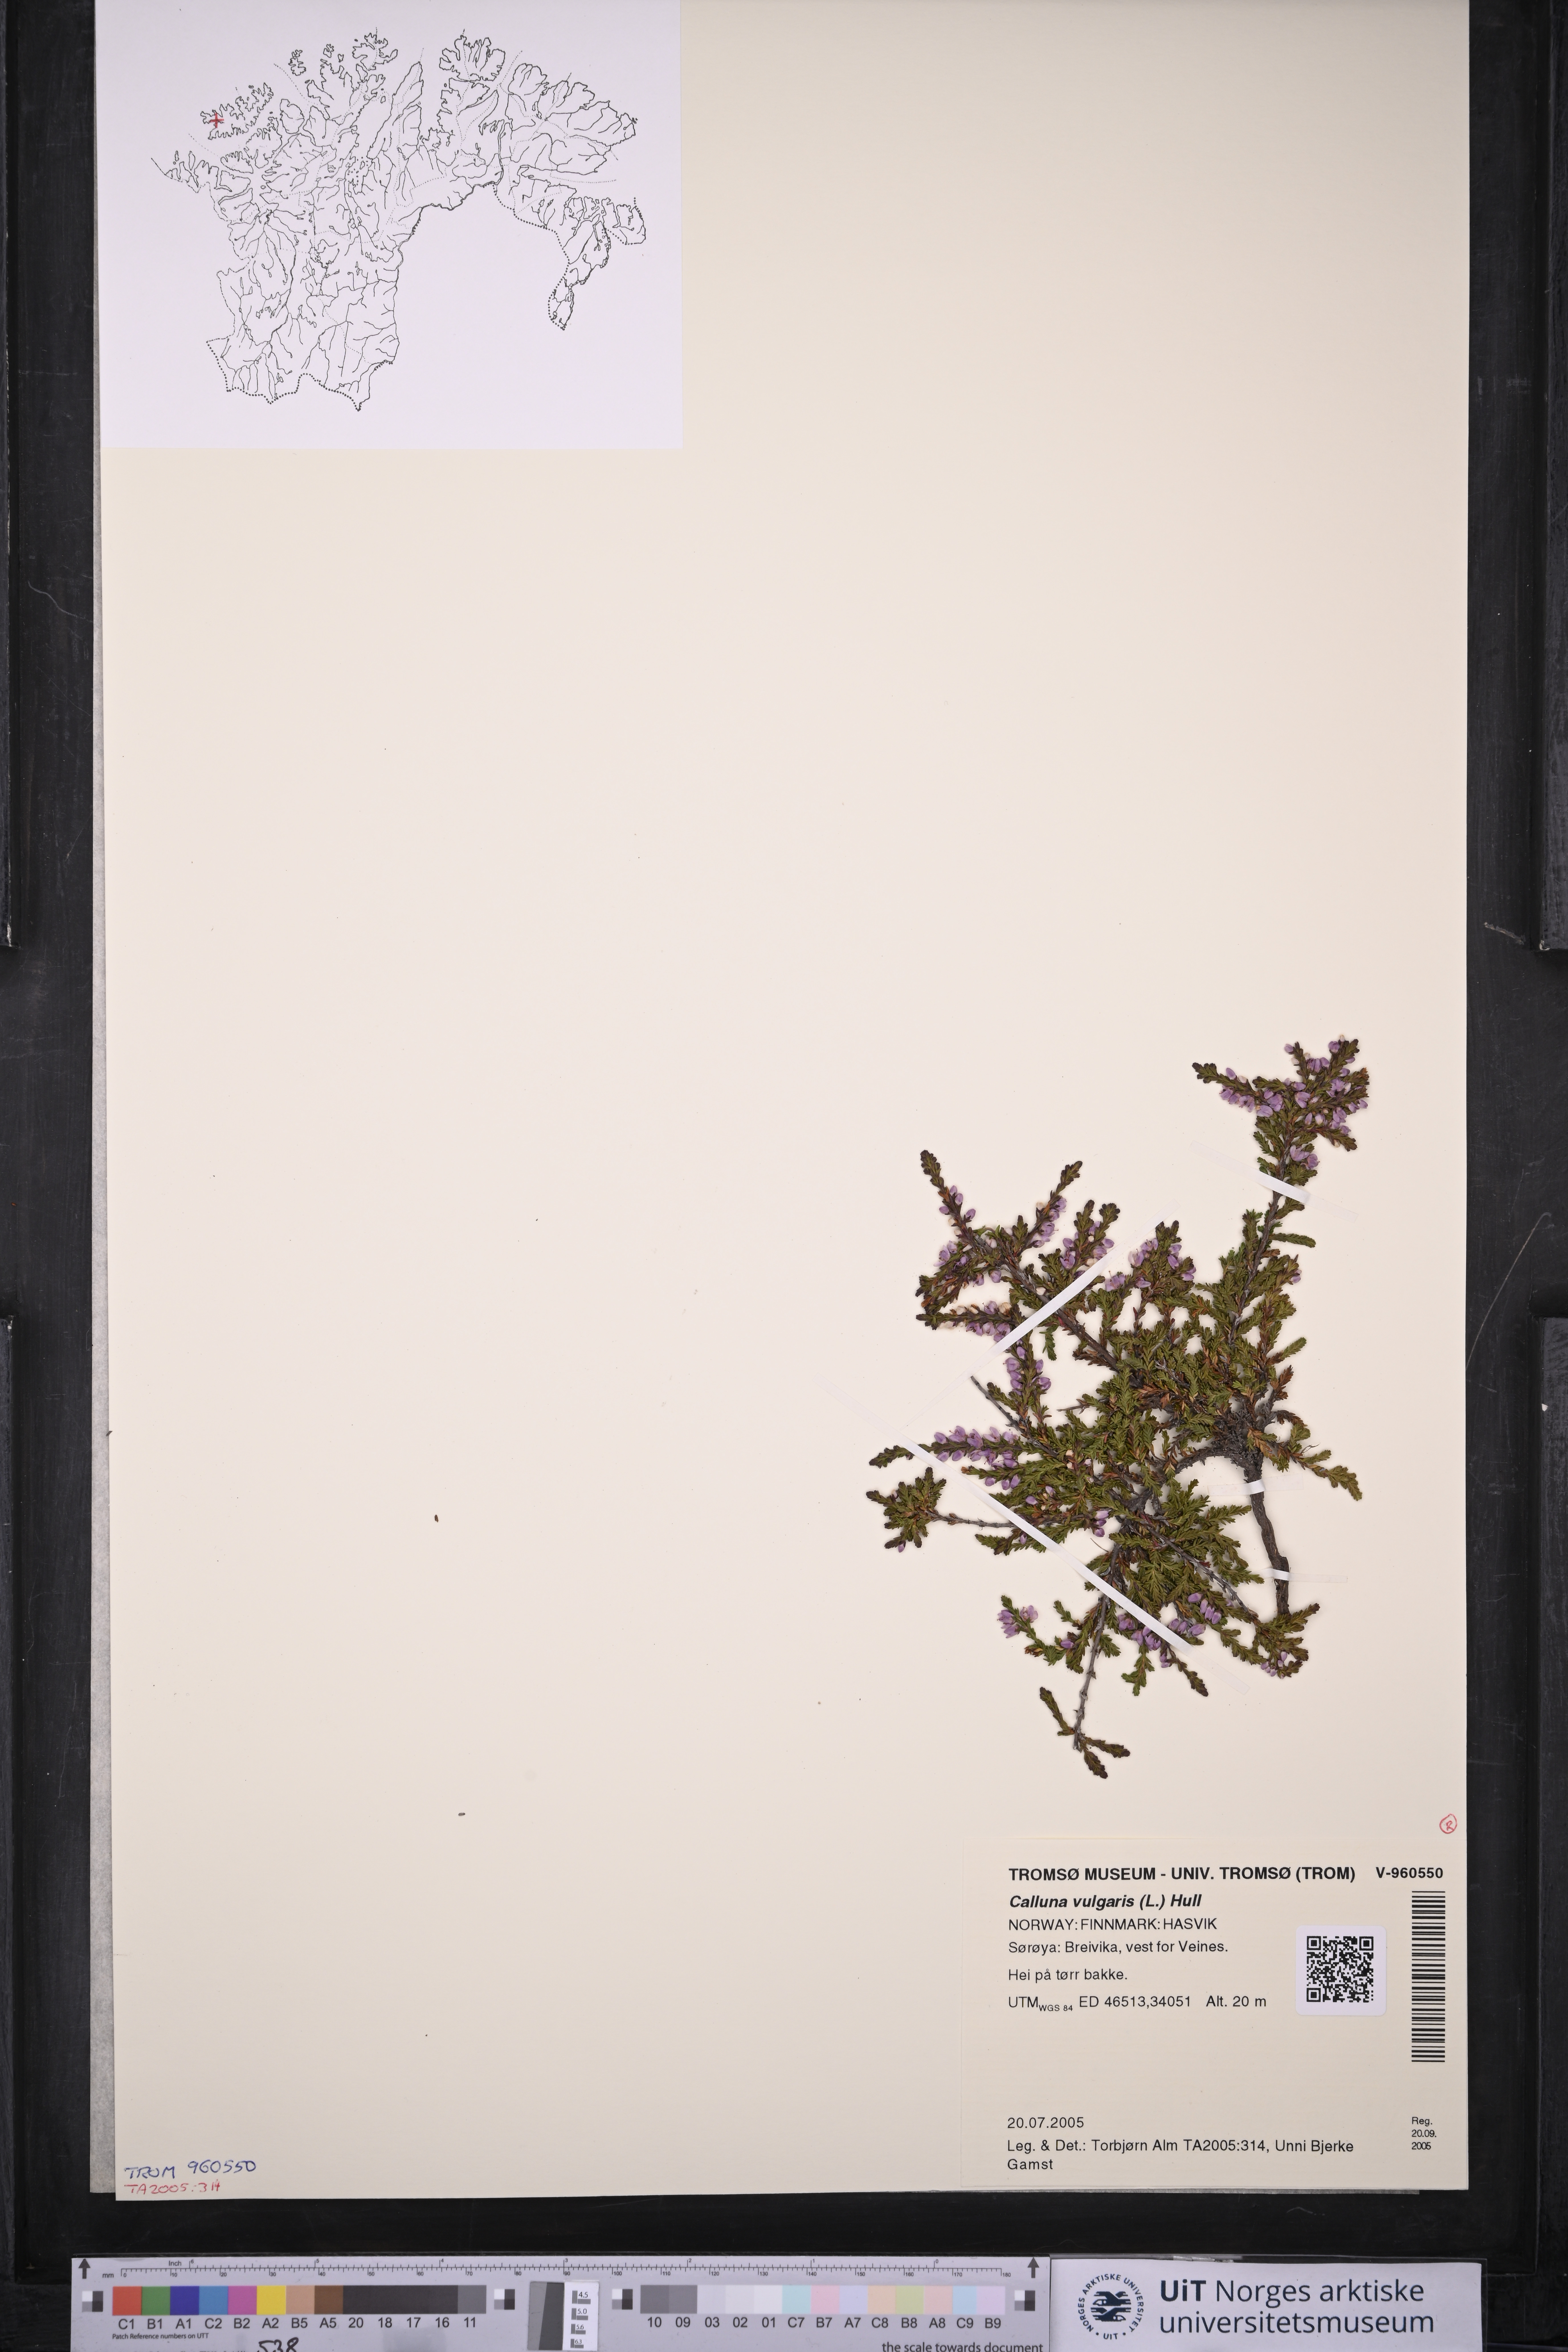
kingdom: Plantae
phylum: Tracheophyta
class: Magnoliopsida
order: Ericales
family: Ericaceae
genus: Calluna
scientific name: Calluna vulgaris
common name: Heather
